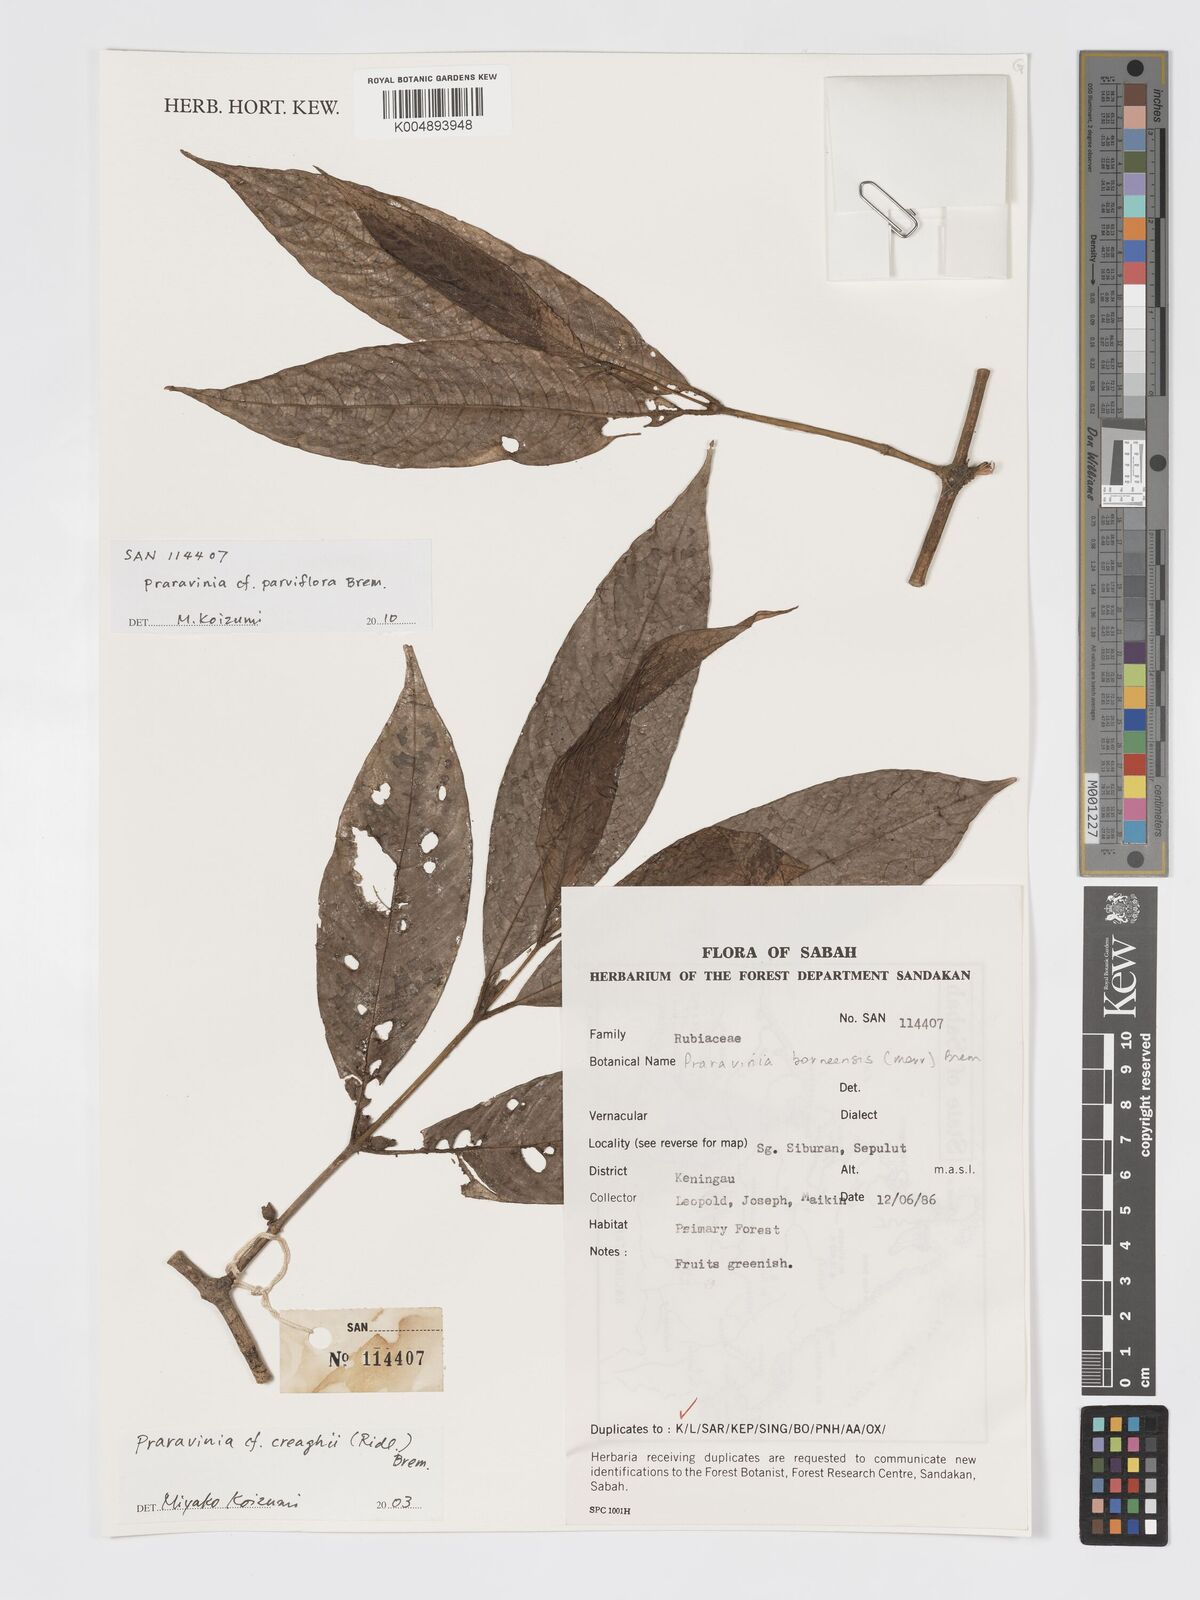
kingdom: Plantae
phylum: Tracheophyta
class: Magnoliopsida
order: Gentianales
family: Rubiaceae
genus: Praravinia
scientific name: Praravinia parviflora
